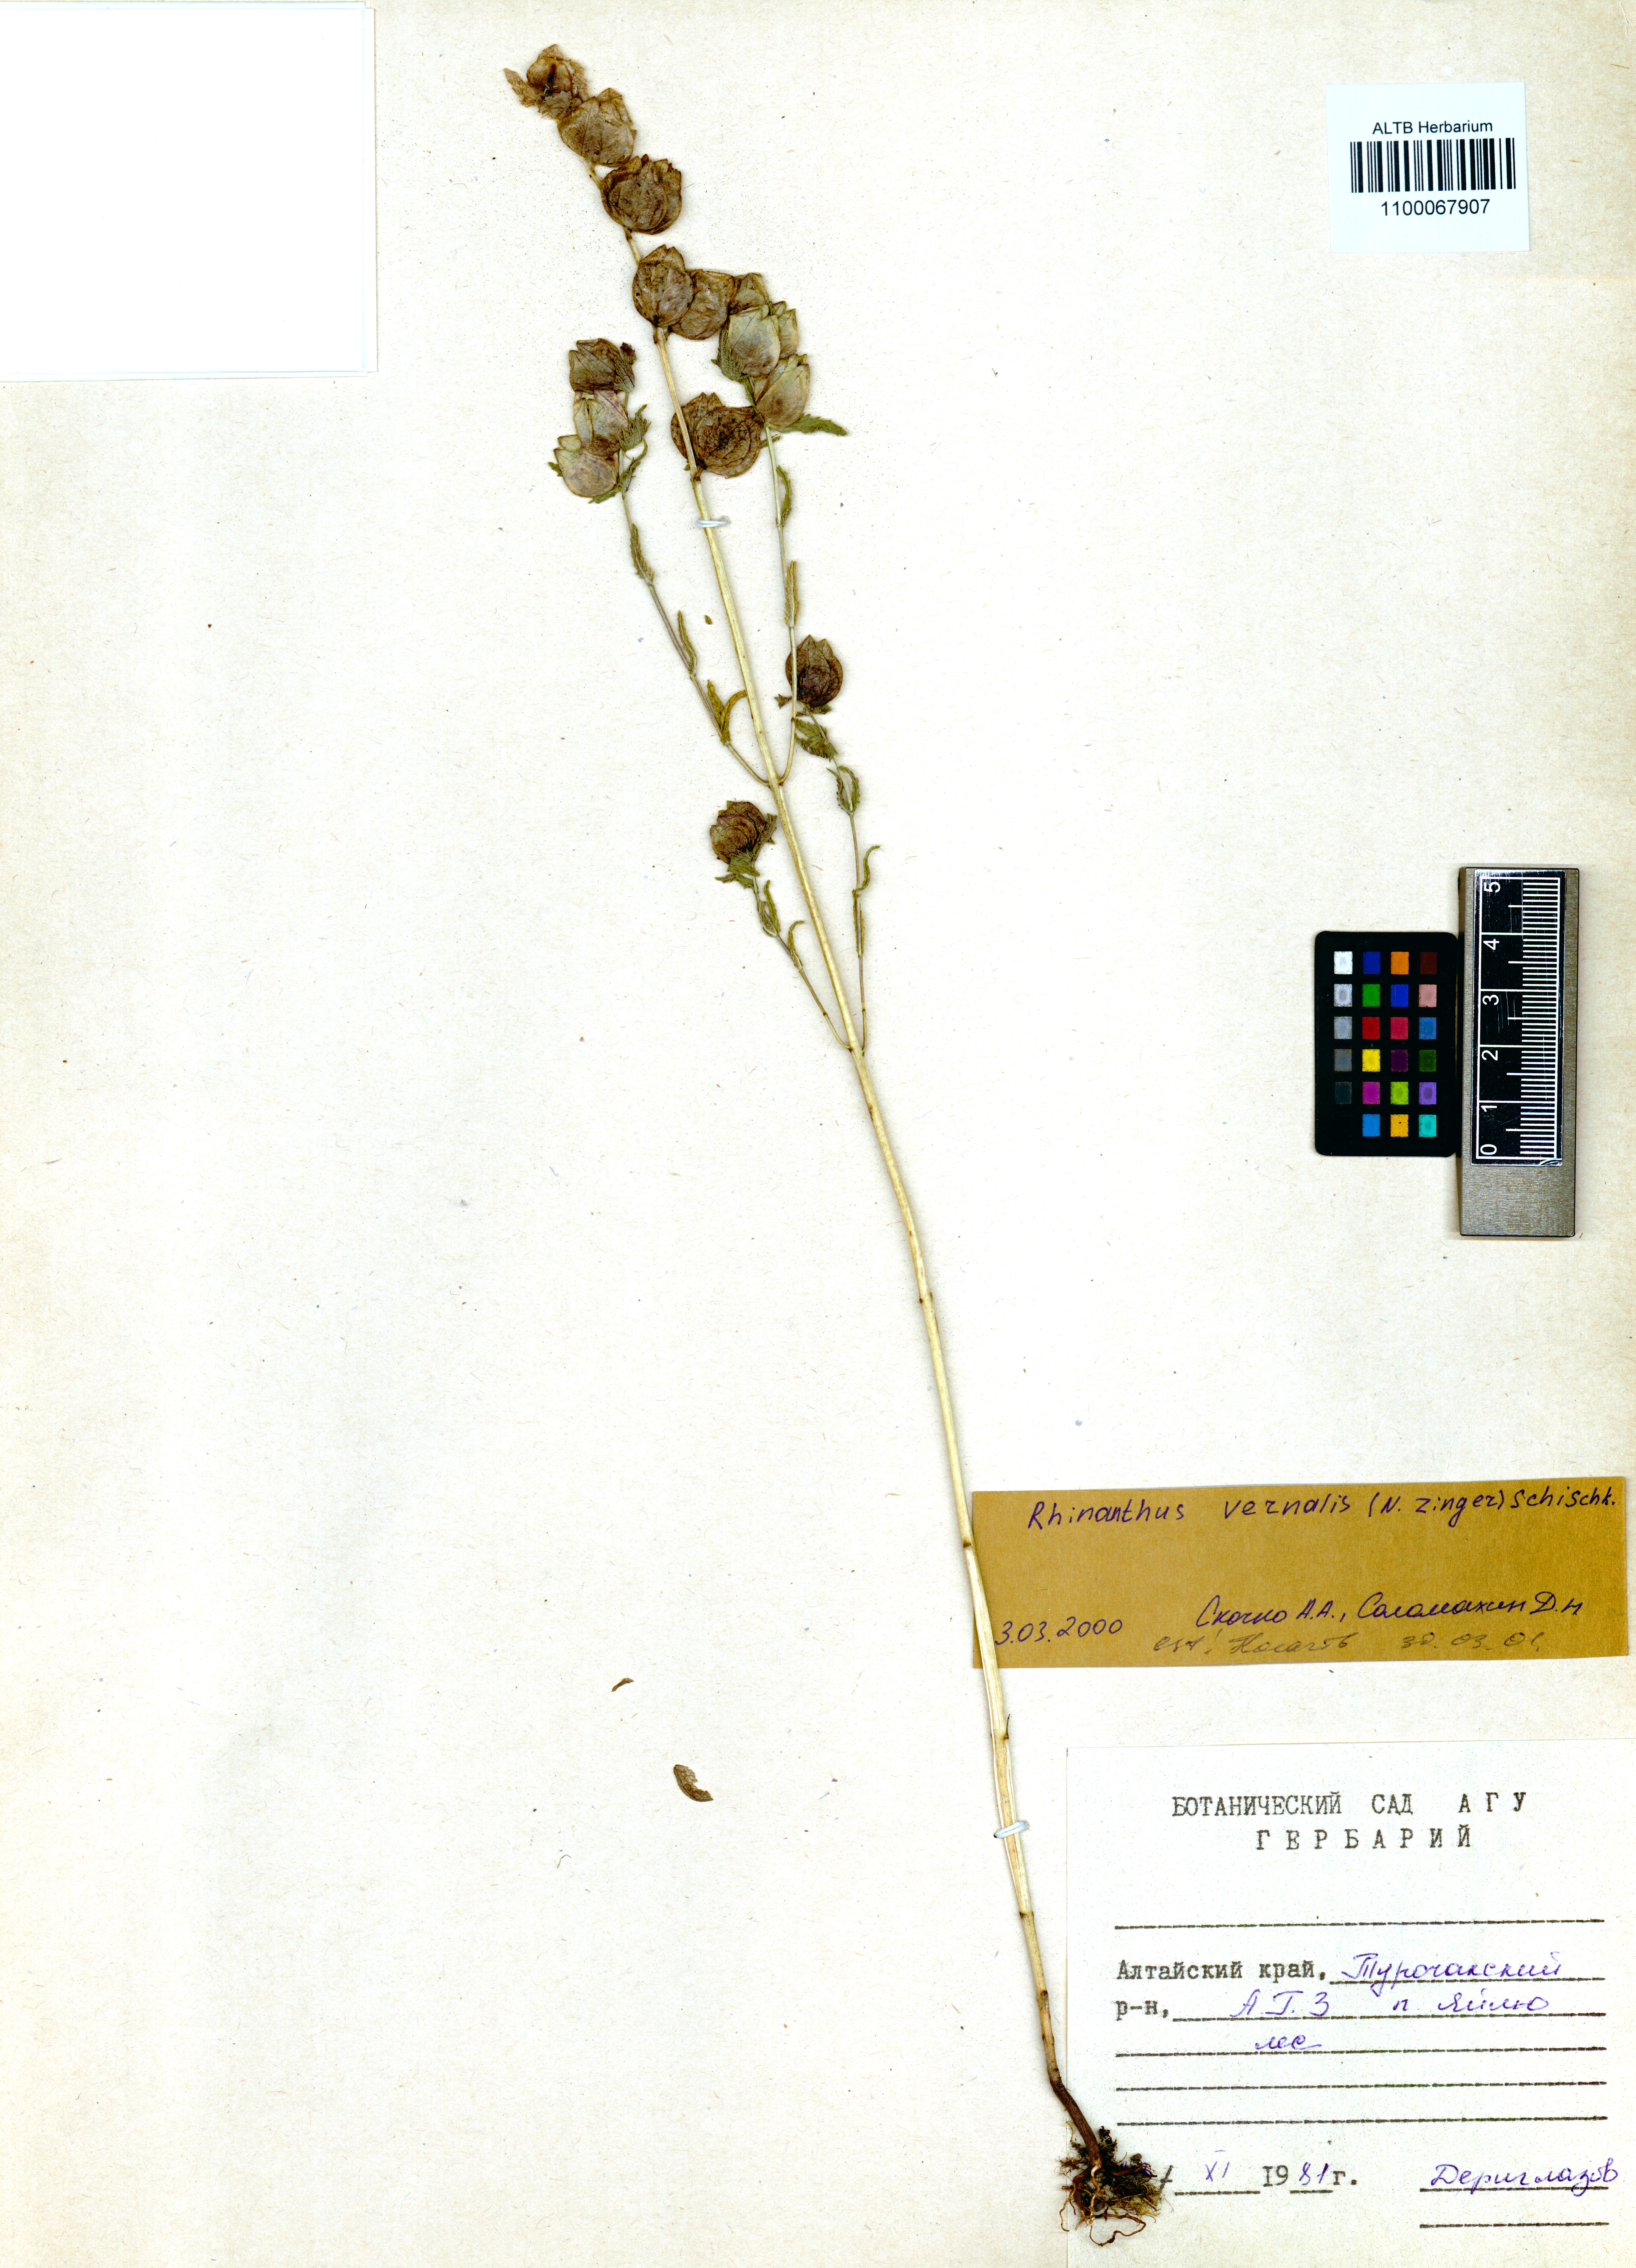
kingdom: Plantae
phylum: Tracheophyta
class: Magnoliopsida
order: Lamiales
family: Orobanchaceae
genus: Rhinanthus
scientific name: Rhinanthus serotinus
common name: Late-flowering yellow rattle
